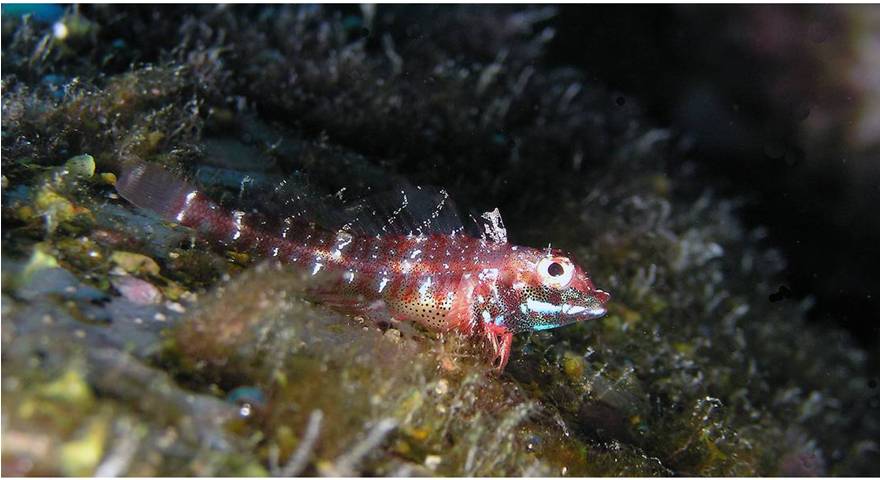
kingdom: Animalia
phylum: Chordata
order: Perciformes
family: Tripterygiidae
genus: Helcogramma
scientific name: Helcogramma obtusirostris
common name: Shortsnout triplefin
